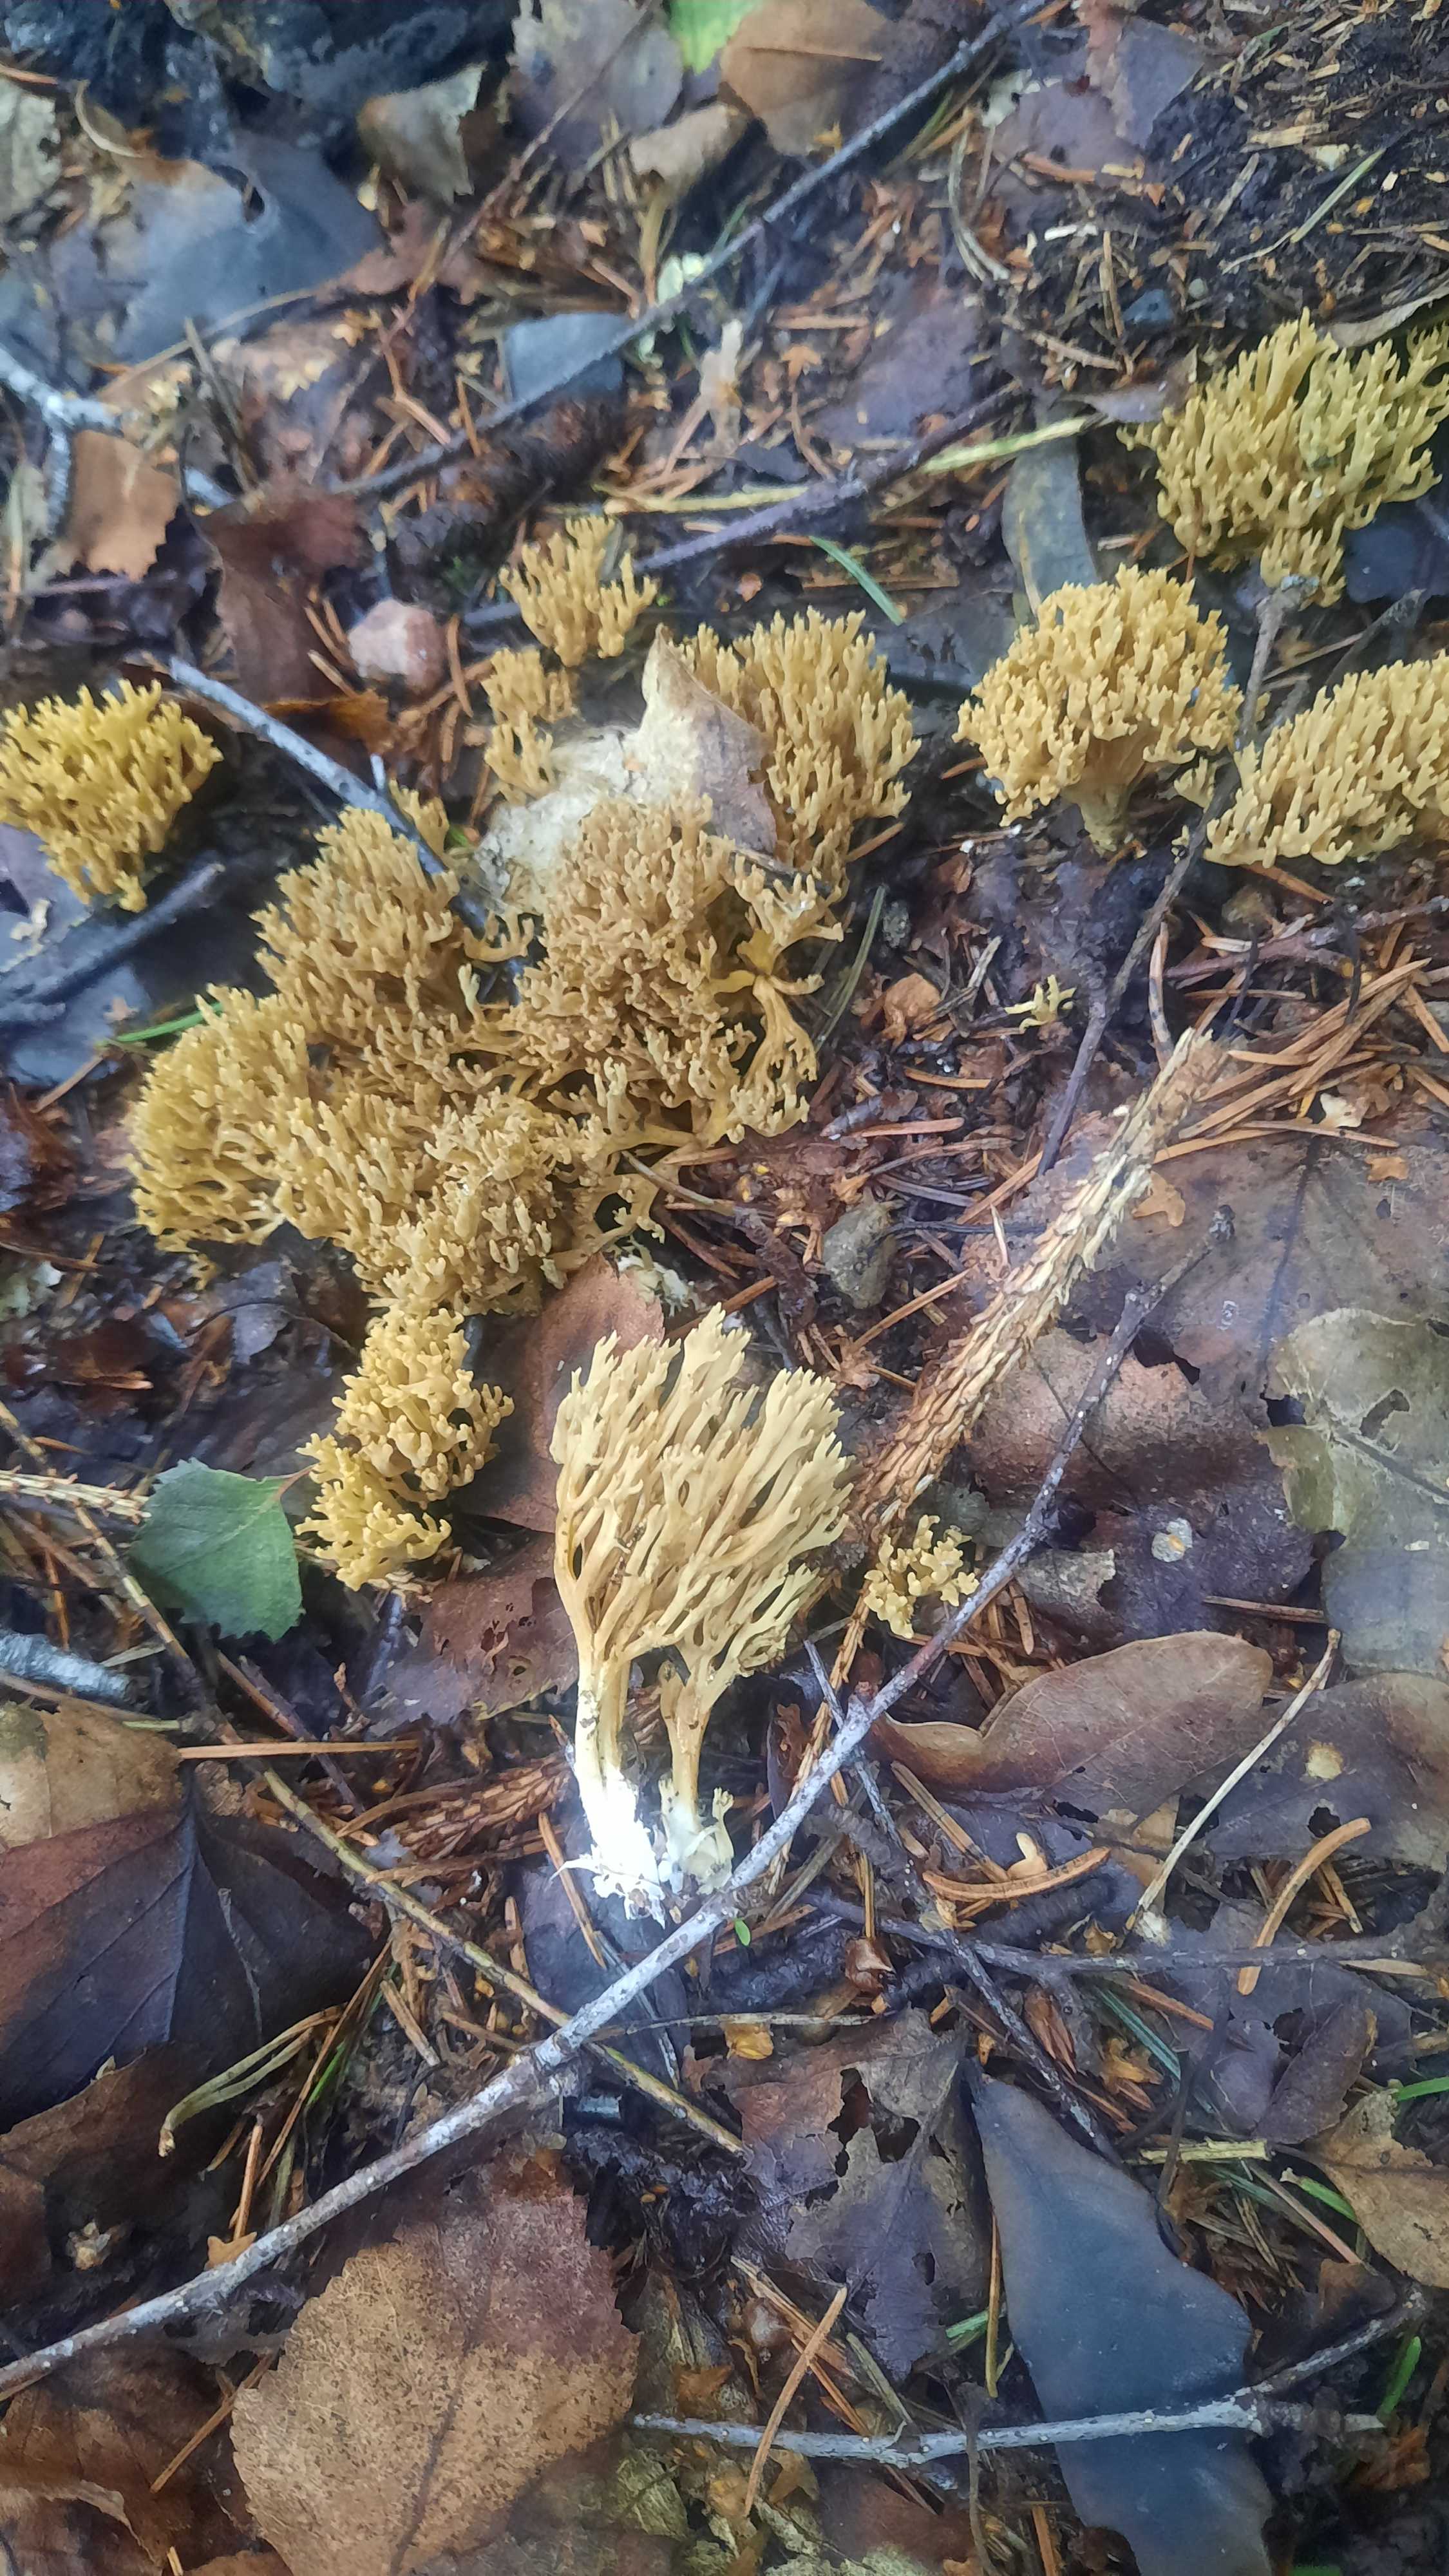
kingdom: Fungi
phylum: Basidiomycota
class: Agaricomycetes
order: Gomphales
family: Gomphaceae
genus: Phaeoclavulina
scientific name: Phaeoclavulina eumorpha
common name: gran-koralsvamp
